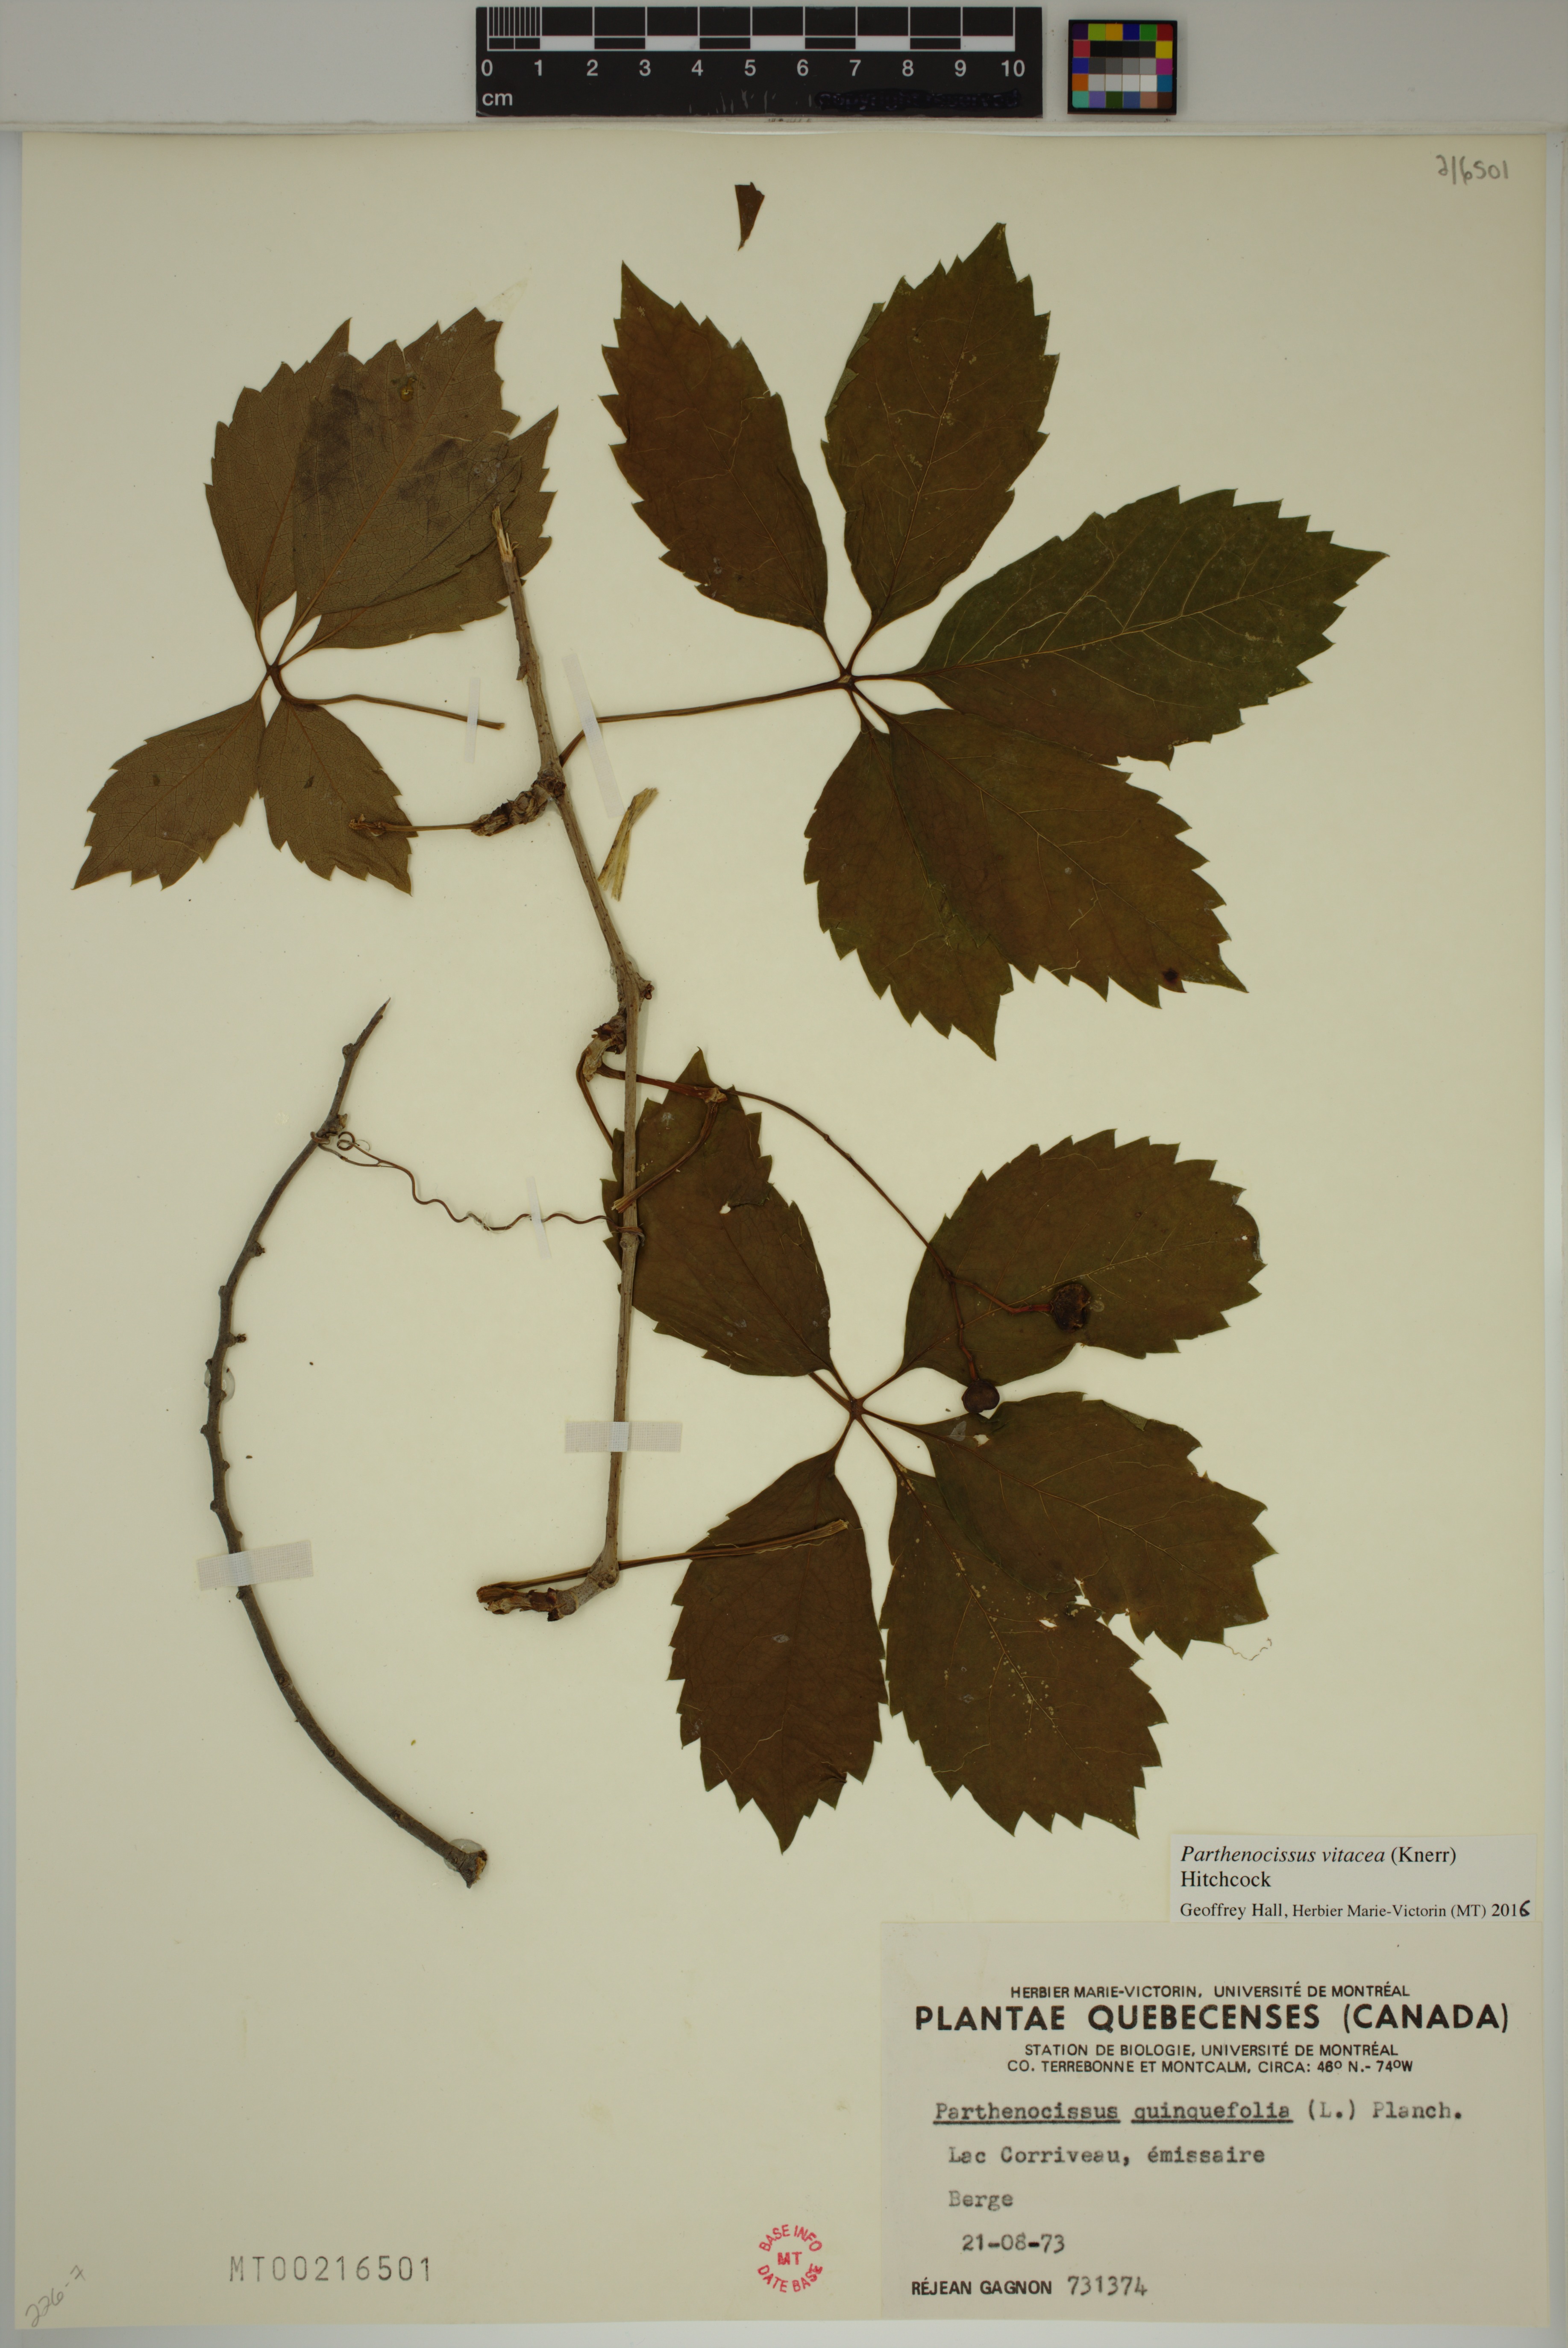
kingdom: Plantae
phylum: Tracheophyta
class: Magnoliopsida
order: Vitales
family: Vitaceae
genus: Parthenocissus
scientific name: Parthenocissus inserta
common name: False virginia-creeper
